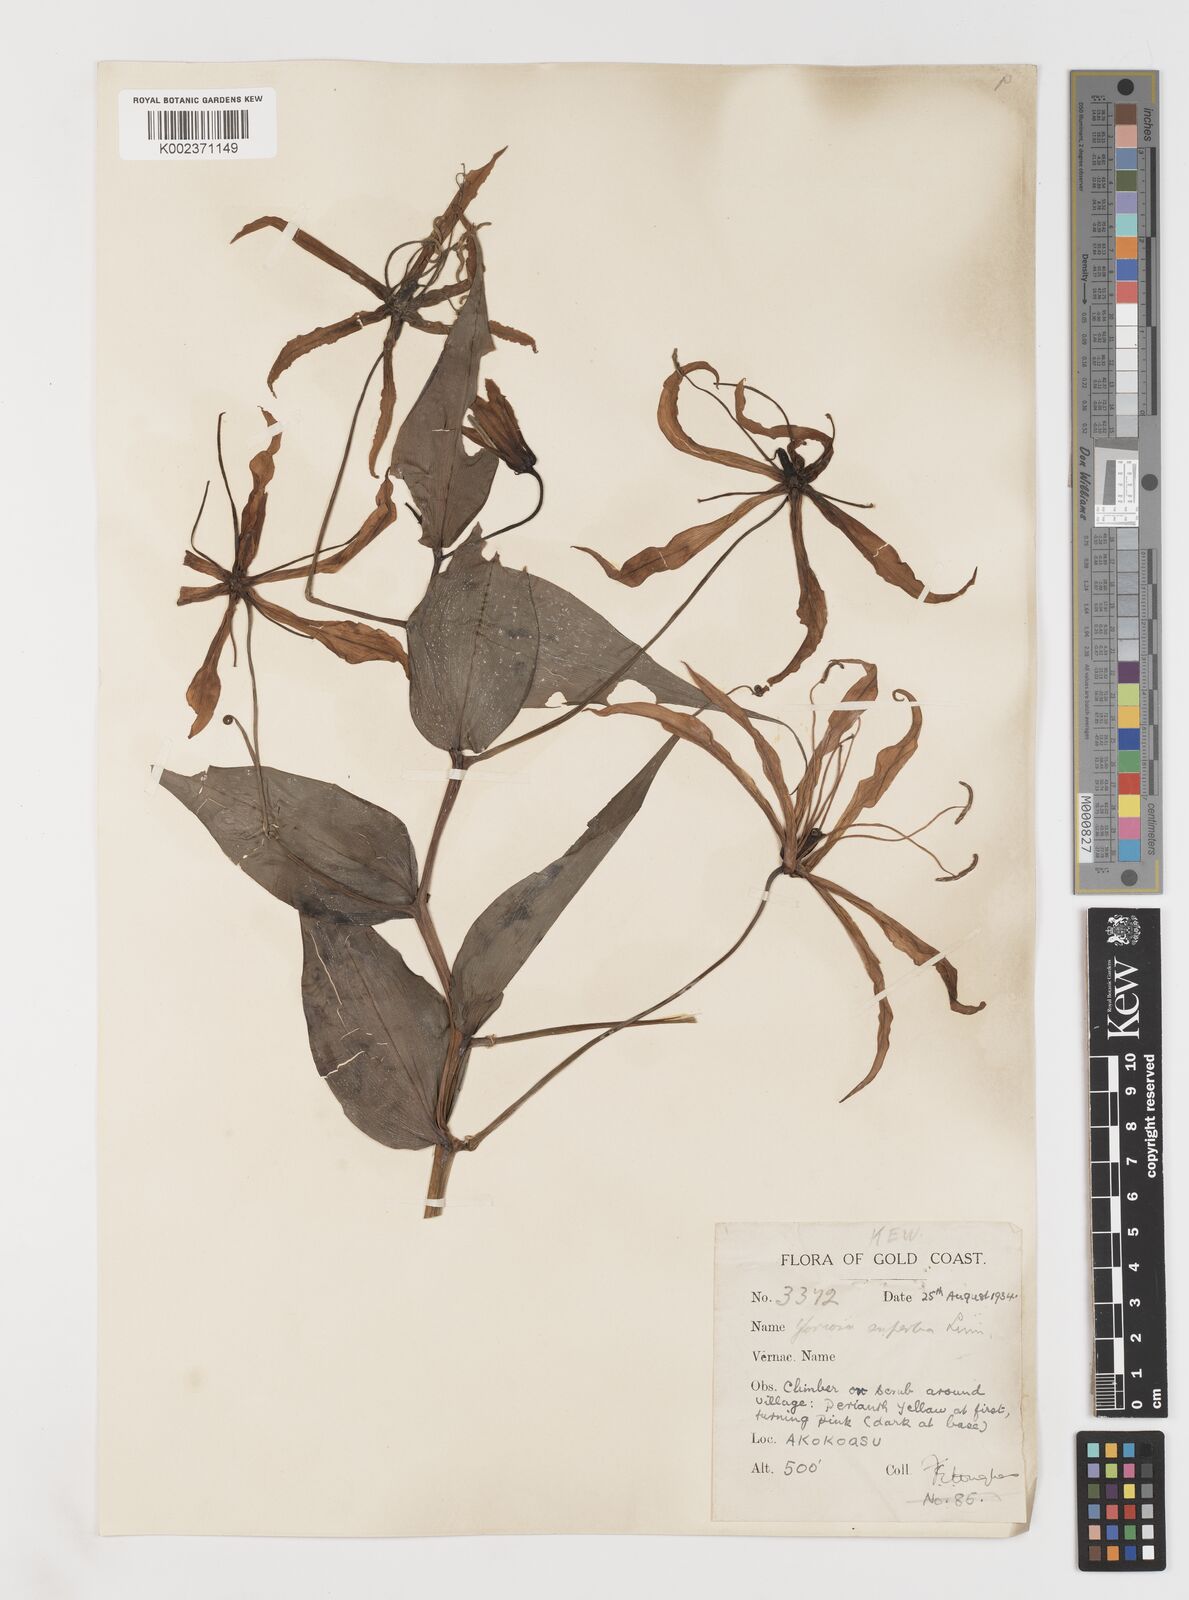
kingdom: Plantae
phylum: Tracheophyta
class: Liliopsida
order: Liliales
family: Colchicaceae
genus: Gloriosa
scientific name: Gloriosa simplex
